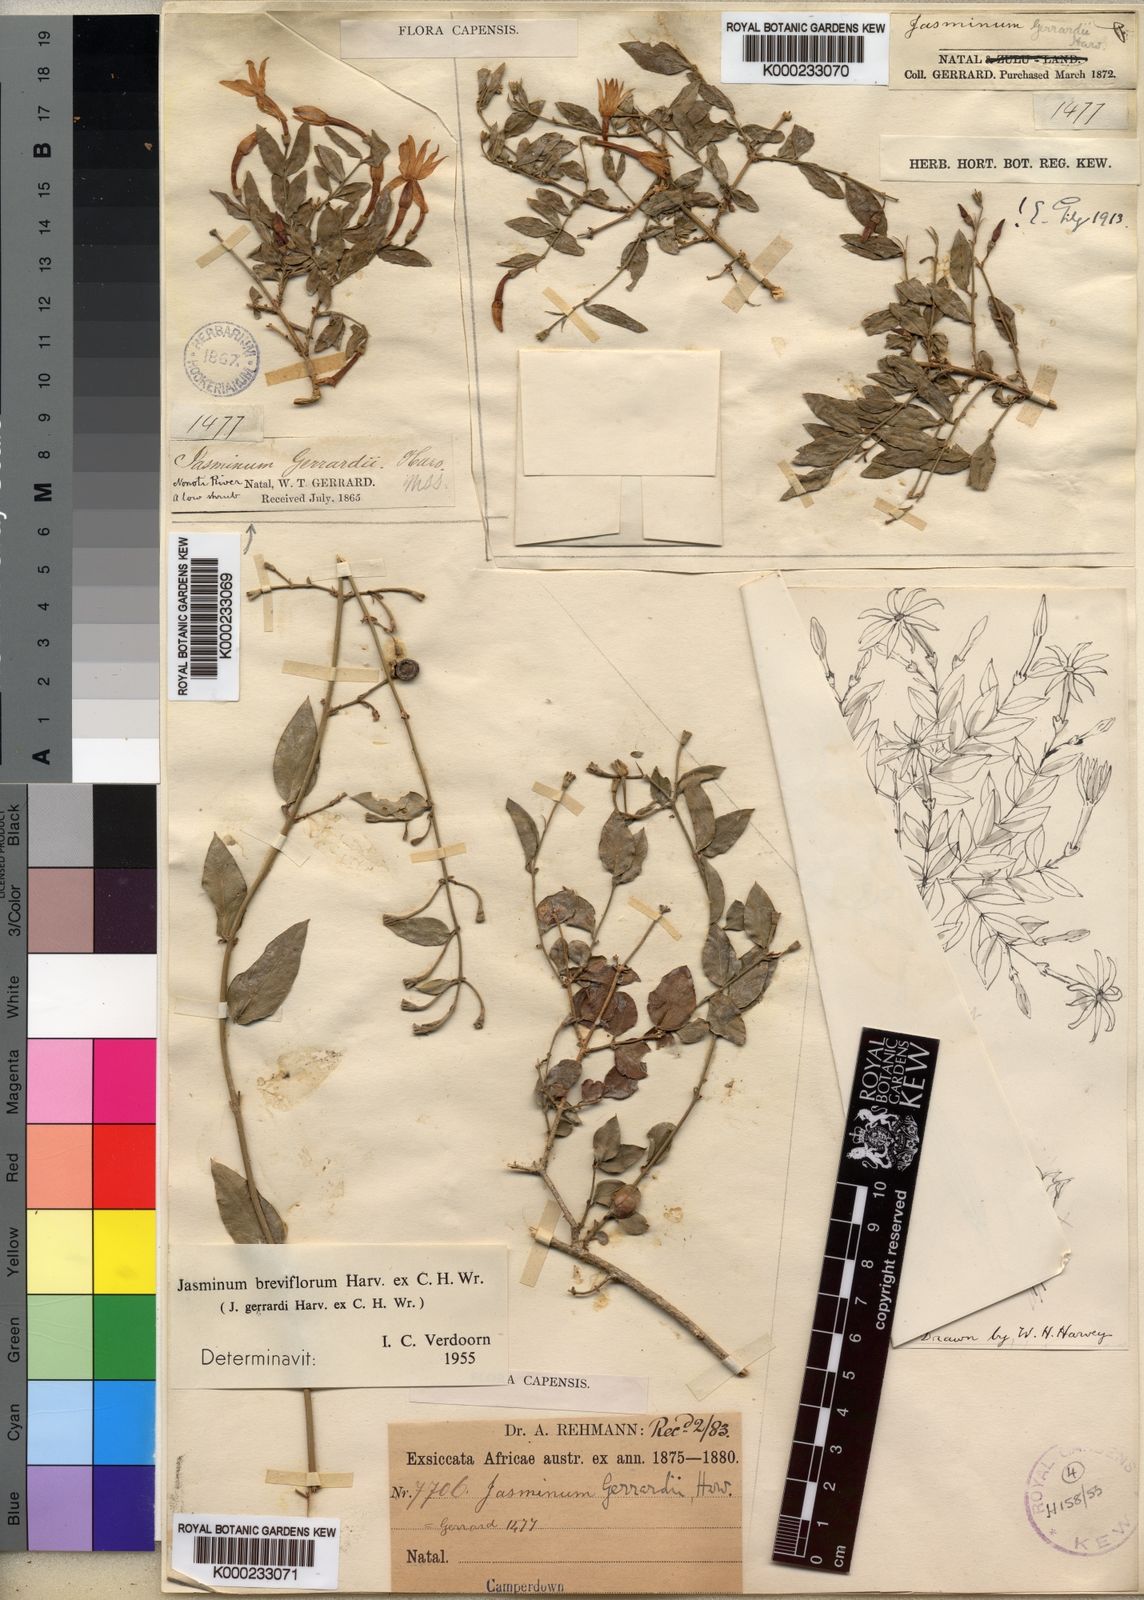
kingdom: Plantae
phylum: Tracheophyta
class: Magnoliopsida
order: Lamiales
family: Oleaceae
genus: Jasminum
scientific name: Jasminum
